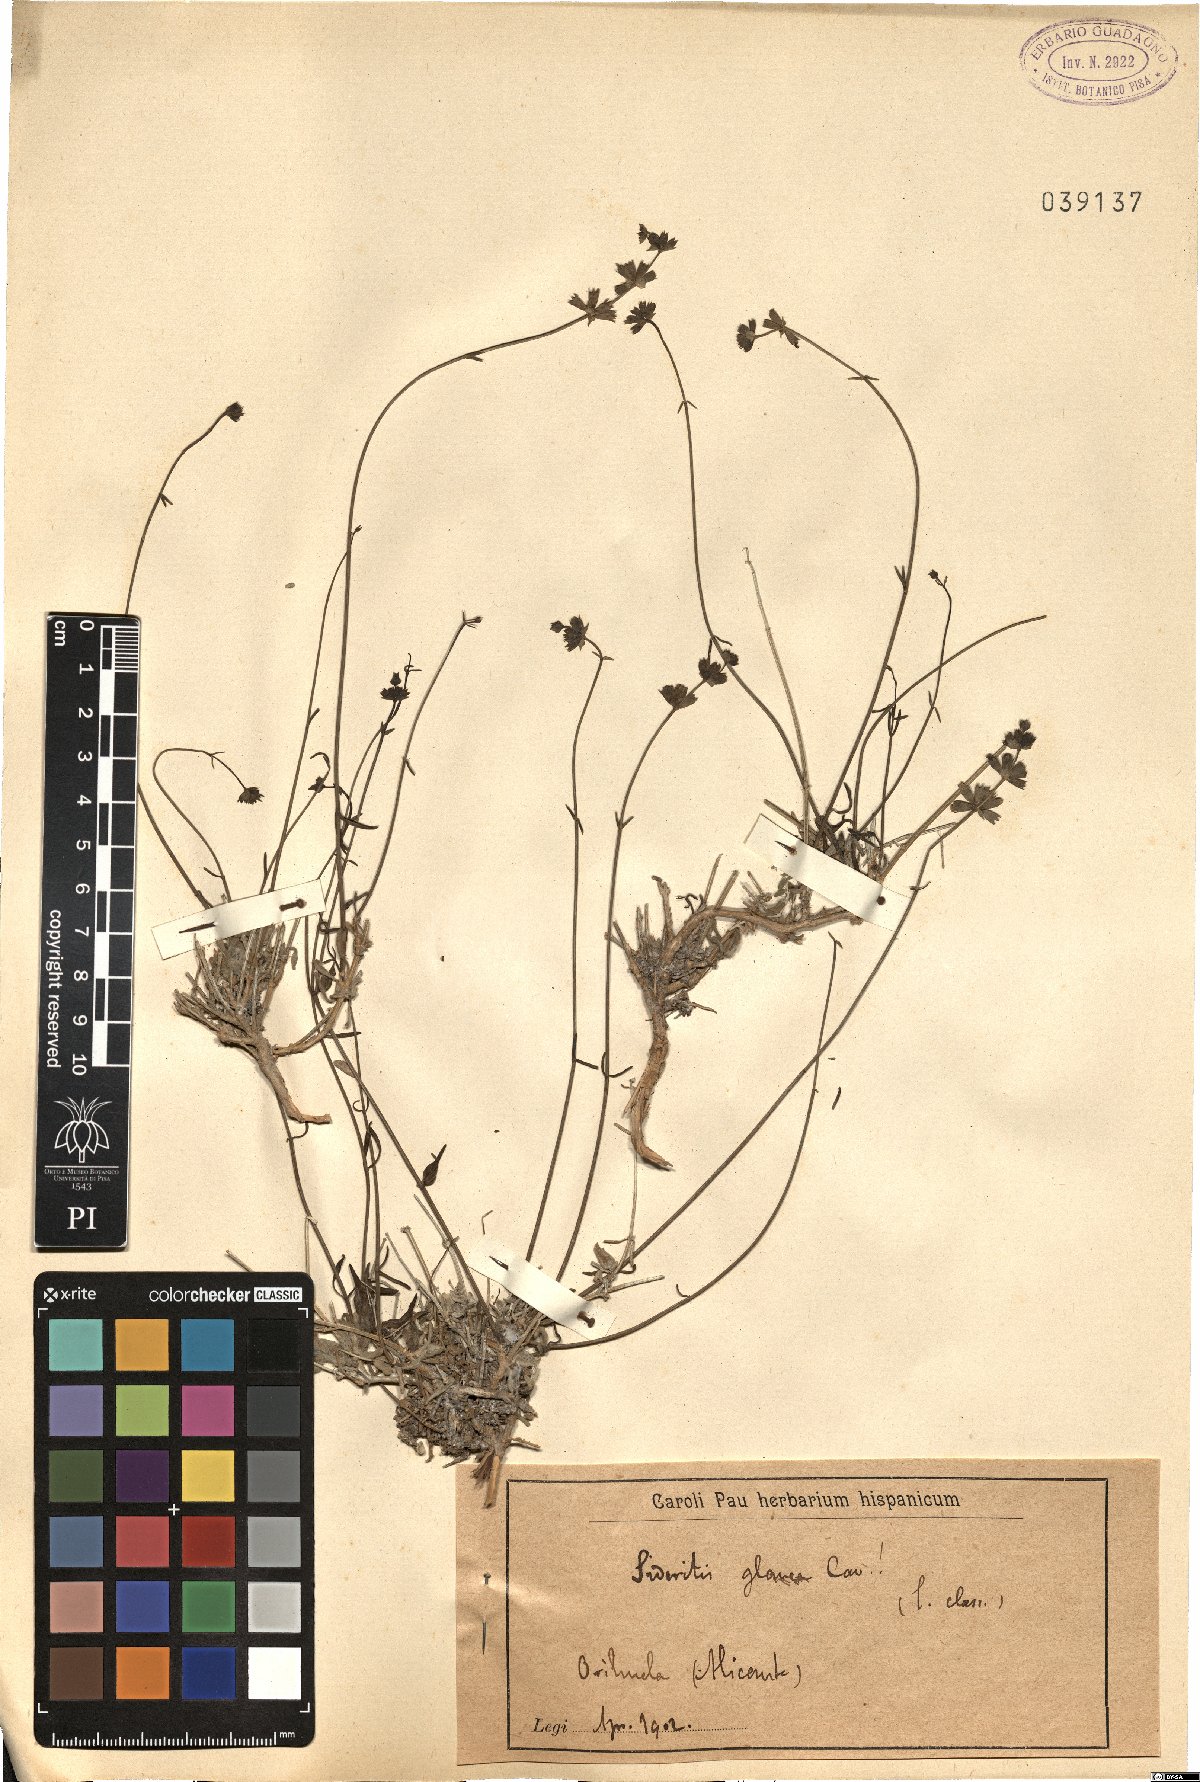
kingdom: Plantae
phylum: Tracheophyta
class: Magnoliopsida
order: Lamiales
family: Lamiaceae
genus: Sideritis
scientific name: Sideritis glauca
